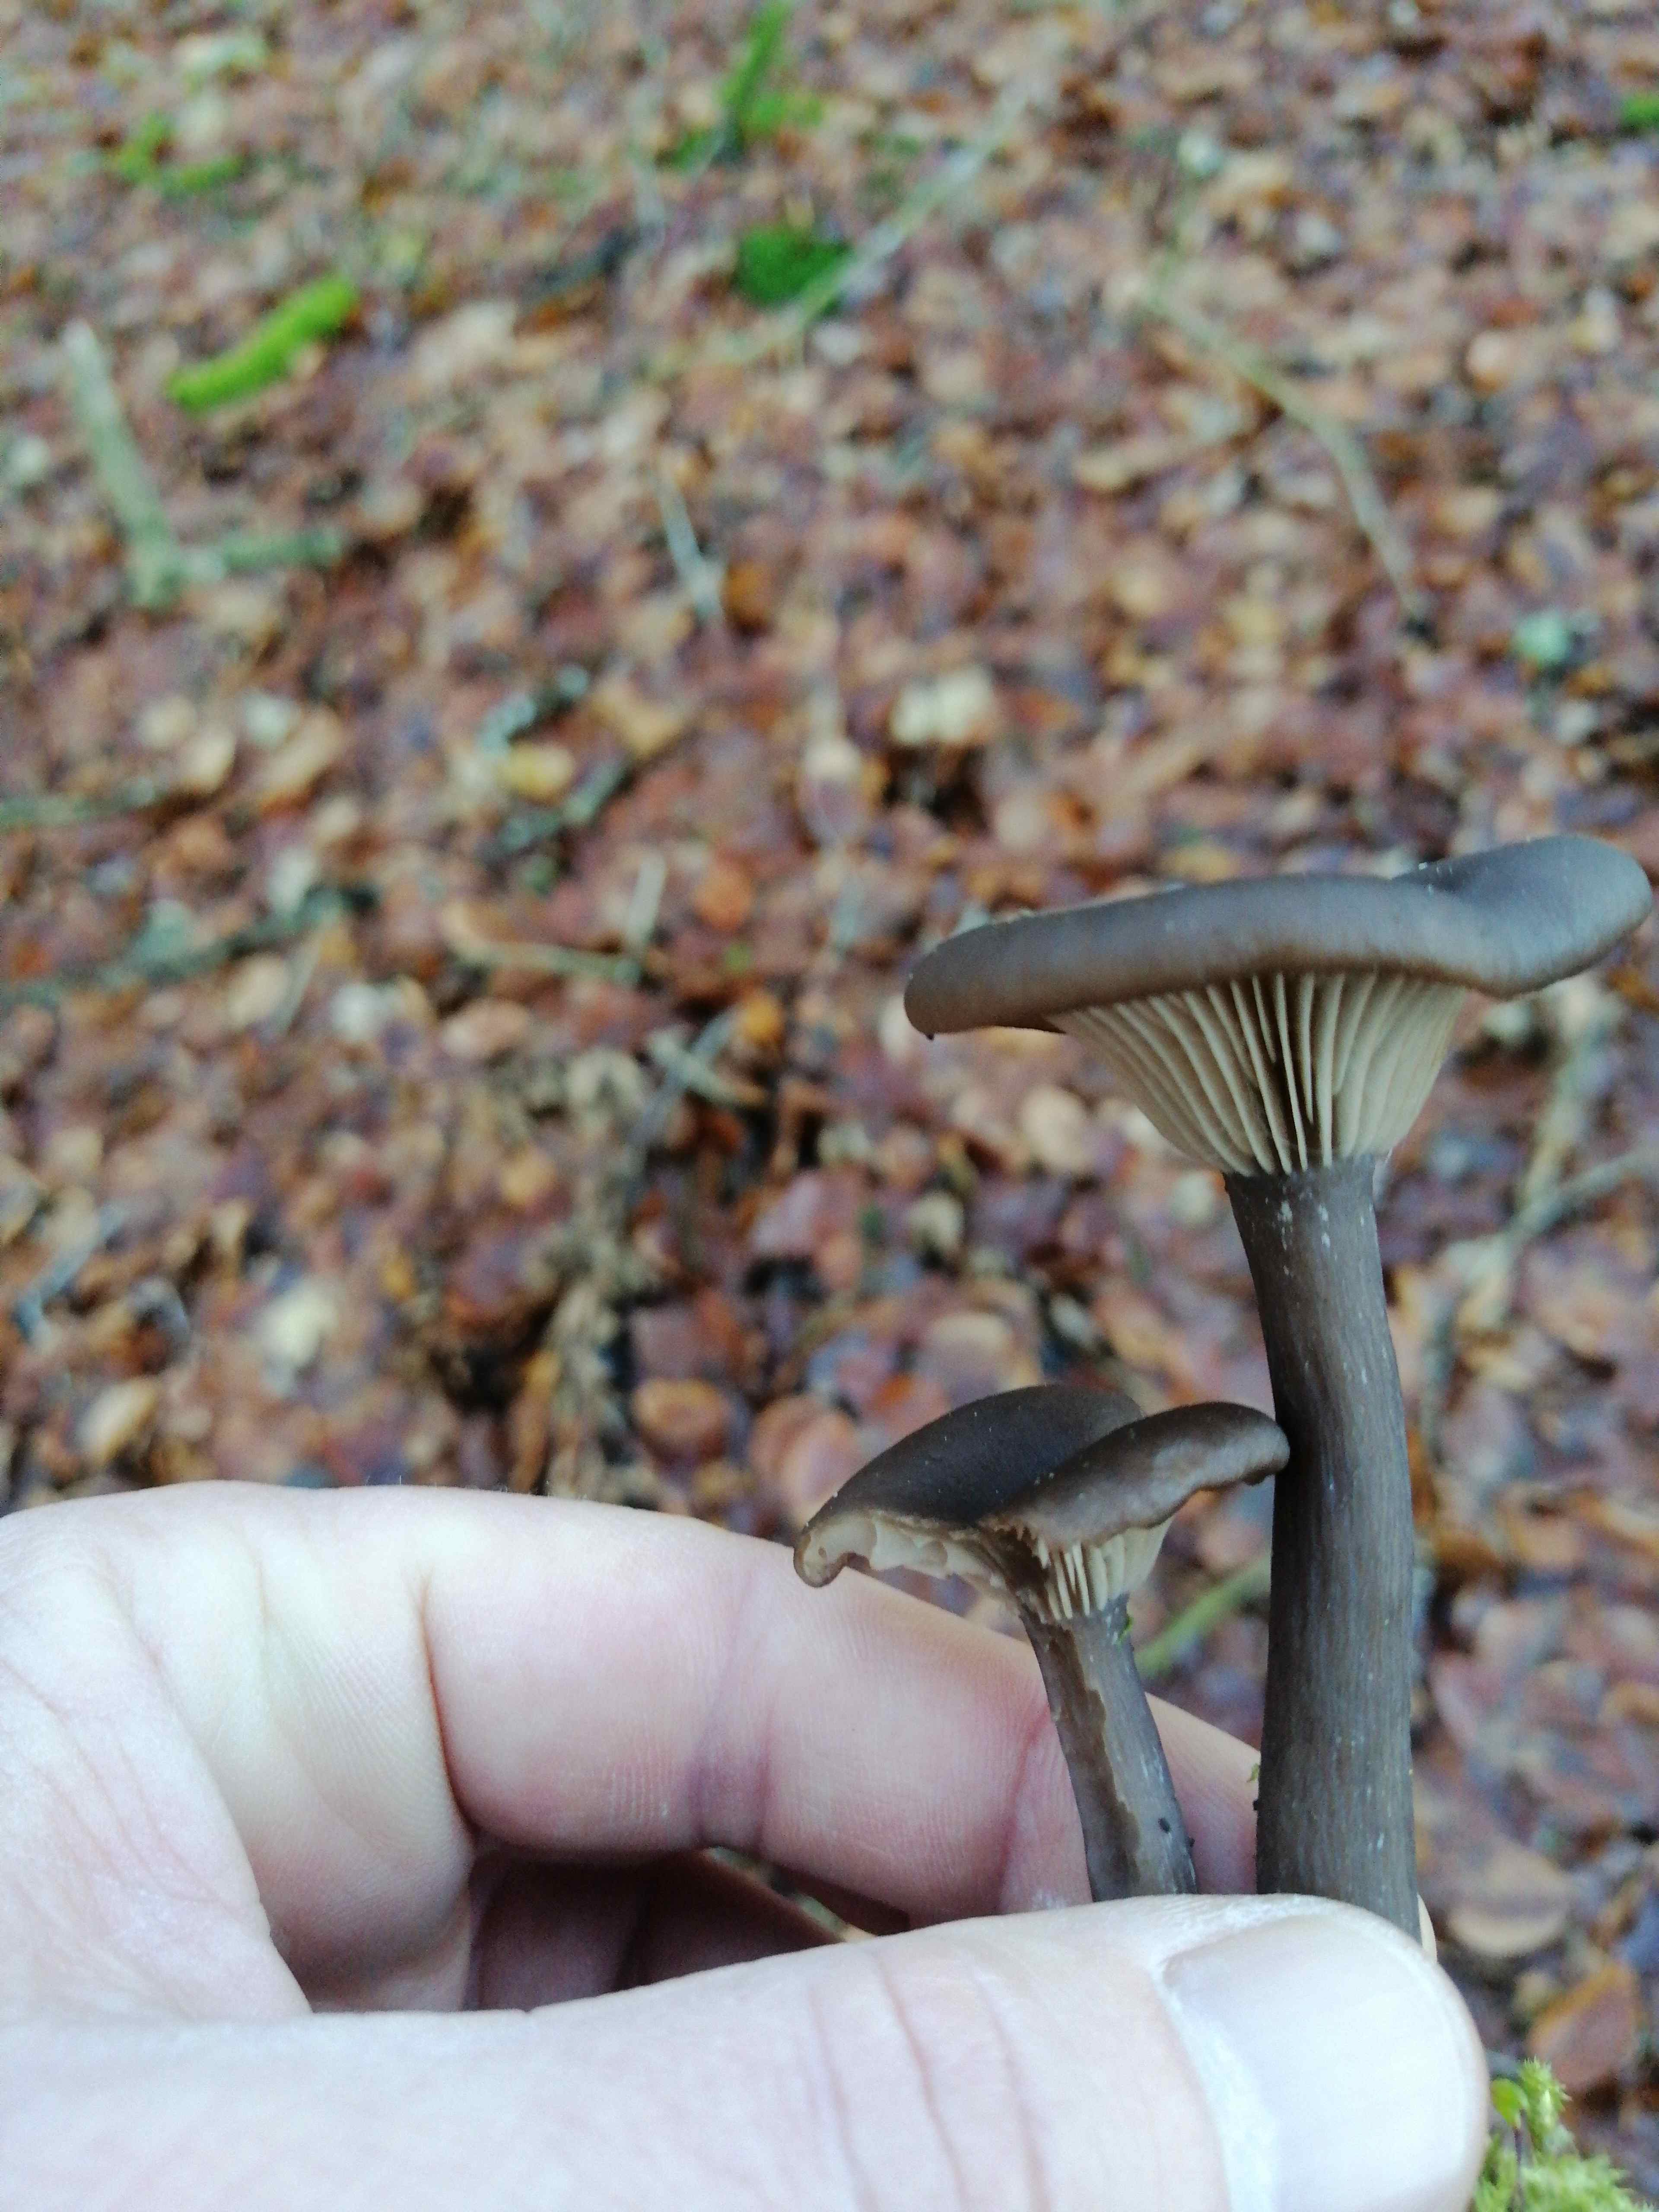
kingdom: Fungi
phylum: Basidiomycota
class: Agaricomycetes
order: Agaricales
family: Pseudoclitocybaceae
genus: Pseudoclitocybe
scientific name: Pseudoclitocybe cyathiformis
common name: almindelig bægertragthat
